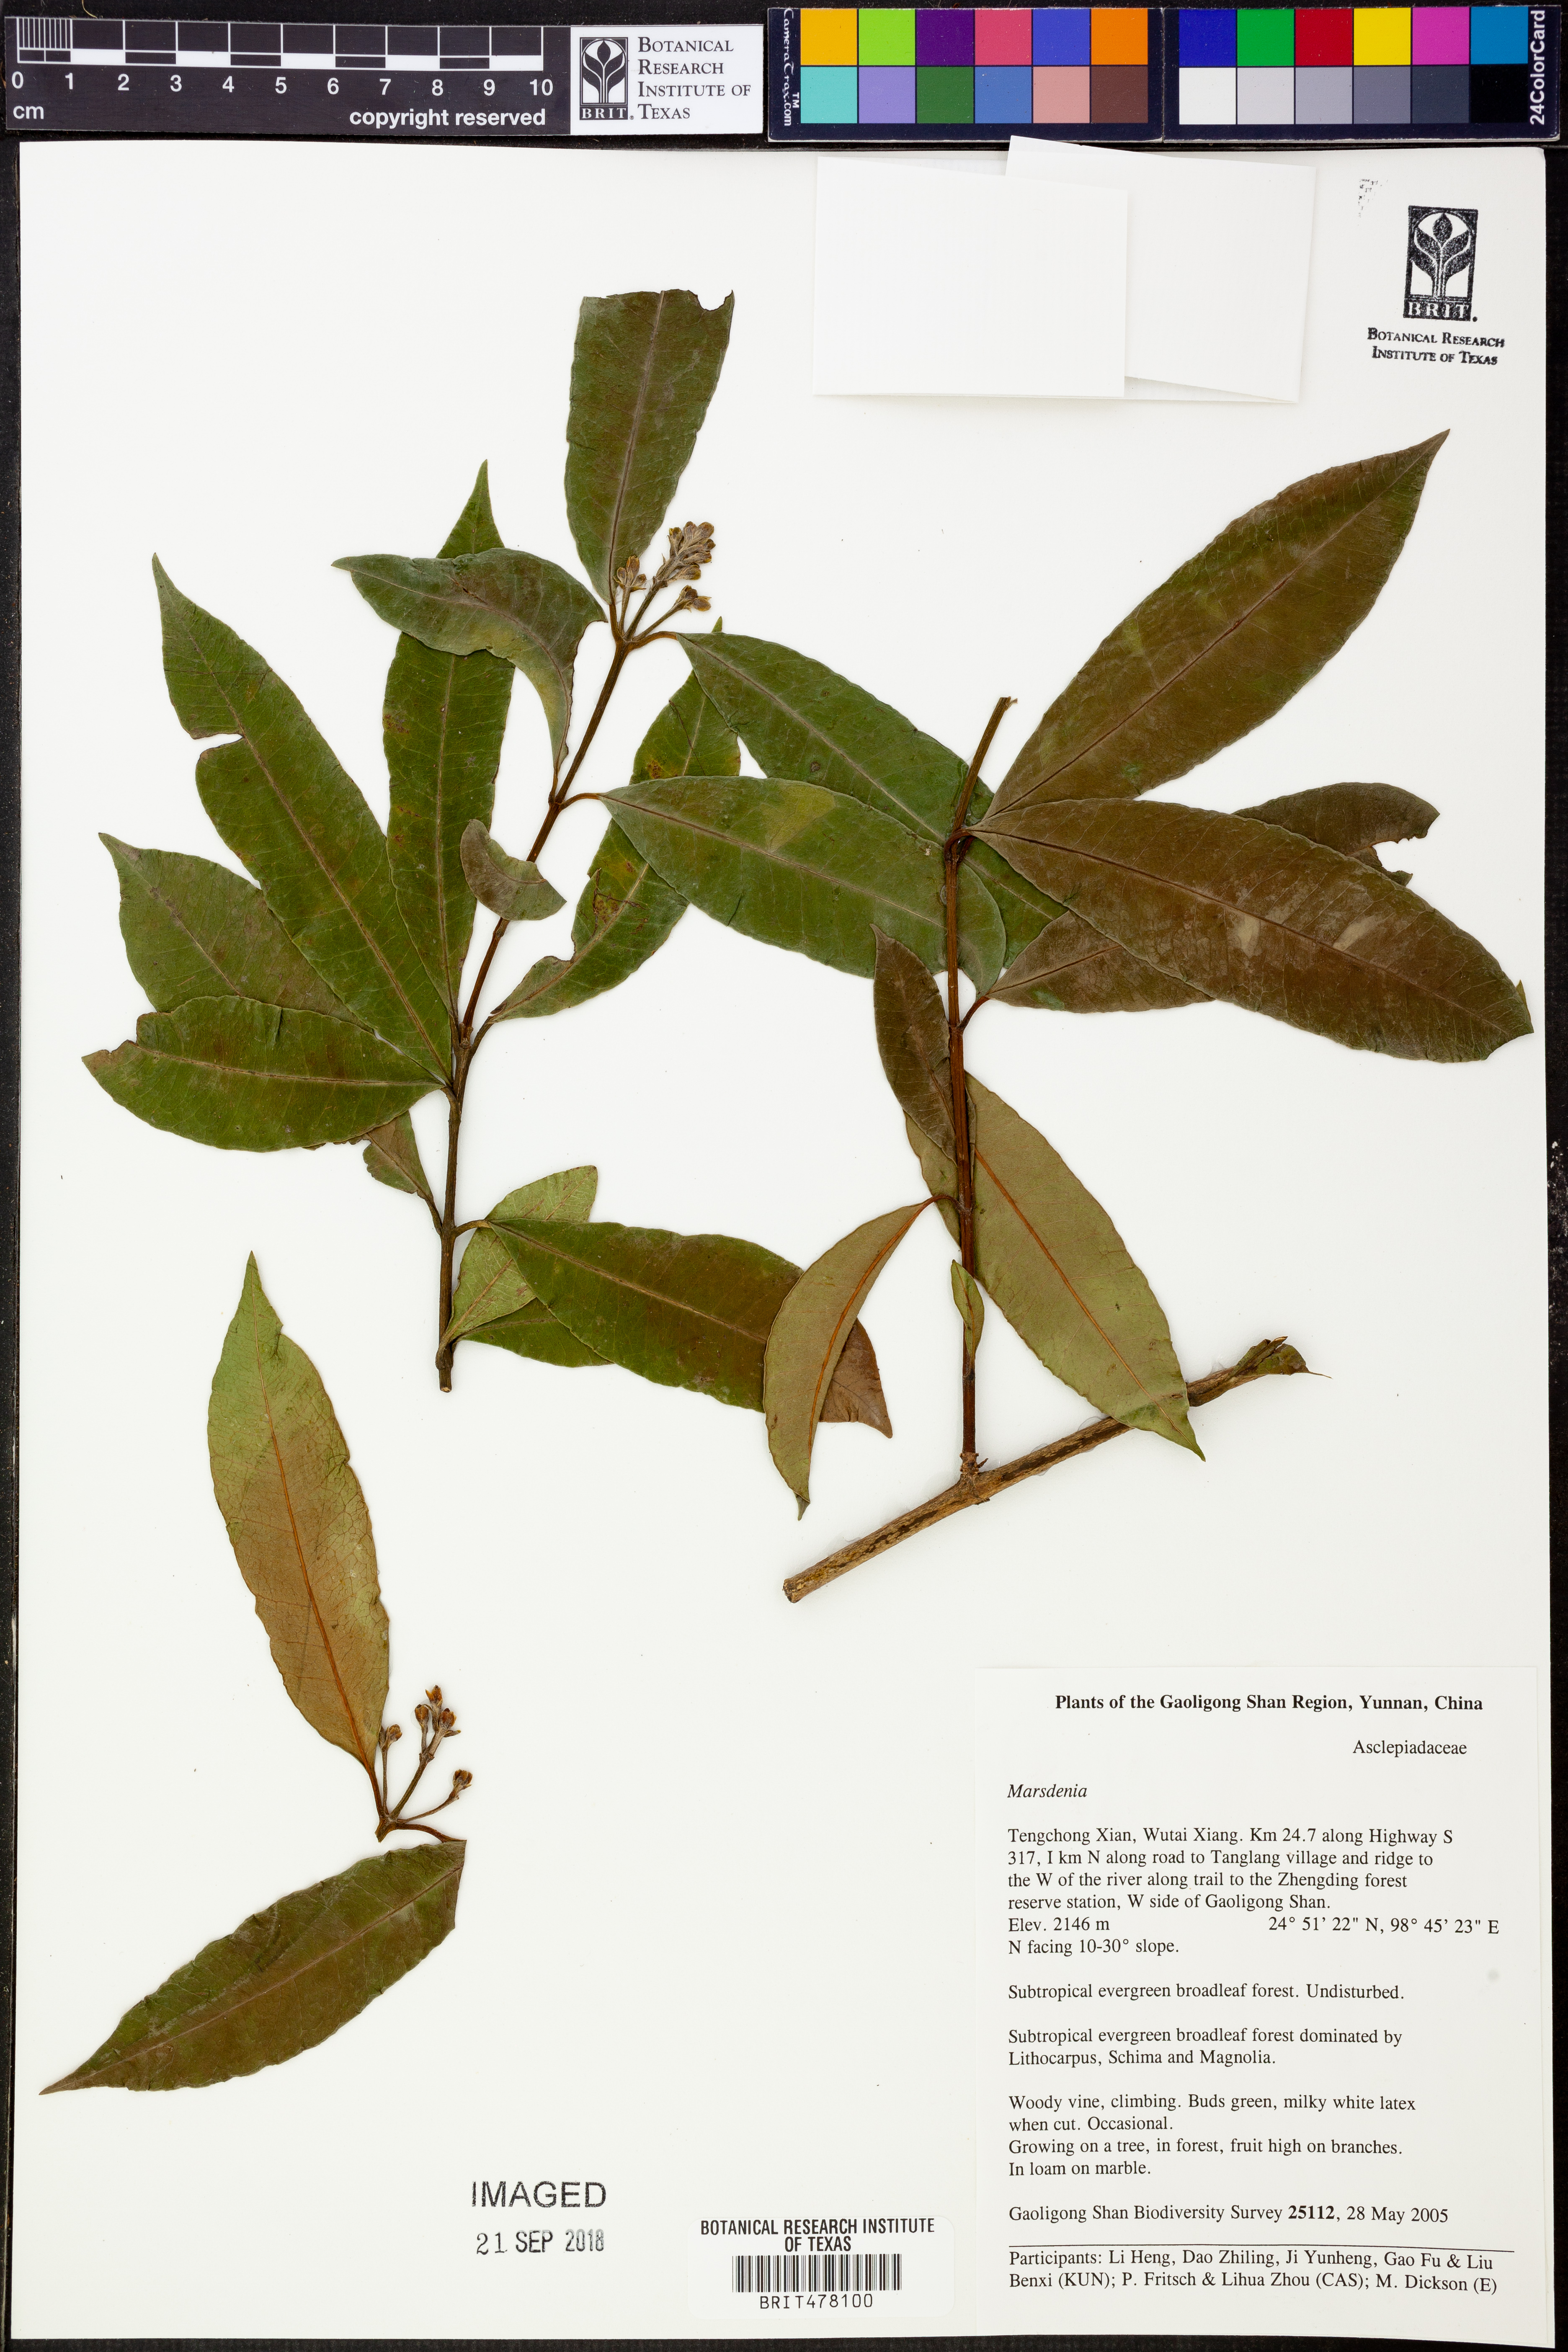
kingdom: Plantae
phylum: Tracheophyta
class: Magnoliopsida
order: Gentianales
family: Apocynaceae
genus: Marsdenia
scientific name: Marsdenia
